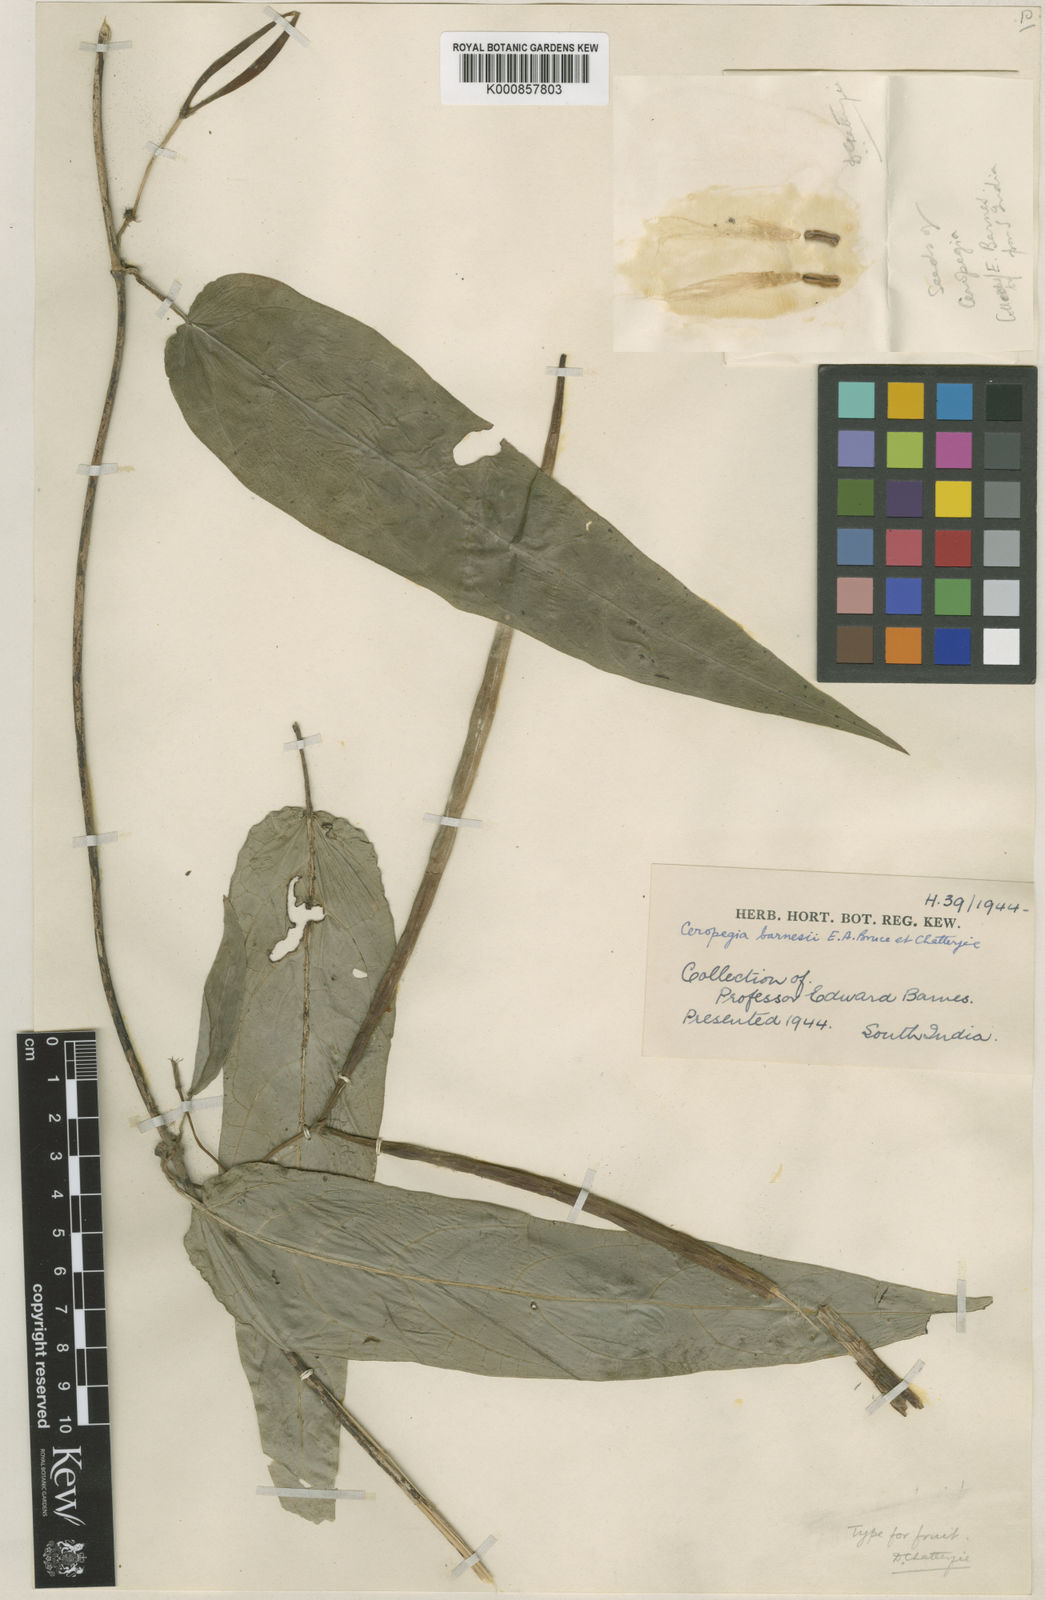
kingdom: Plantae
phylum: Tracheophyta
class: Magnoliopsida
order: Gentianales
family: Apocynaceae
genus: Ceropegia
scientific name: Ceropegia barnesii
